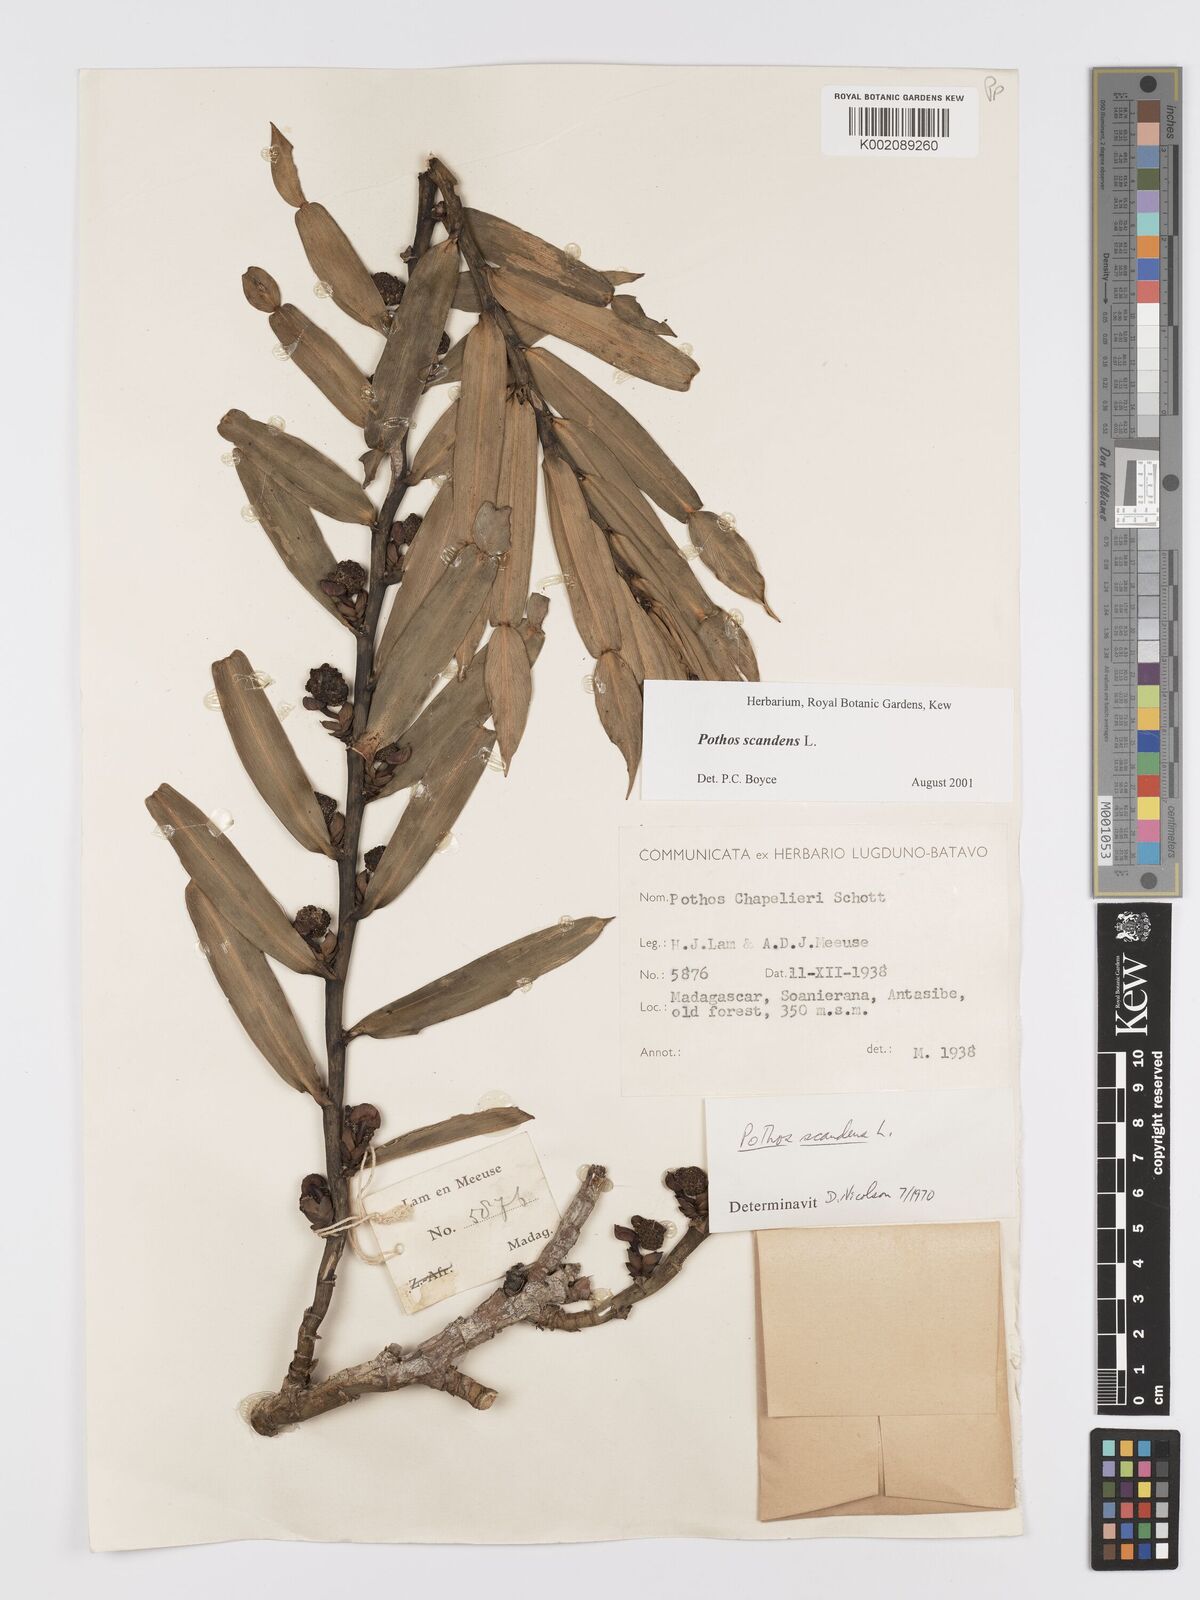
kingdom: Plantae
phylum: Tracheophyta
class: Liliopsida
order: Alismatales
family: Araceae
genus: Pothos
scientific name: Pothos scandens
